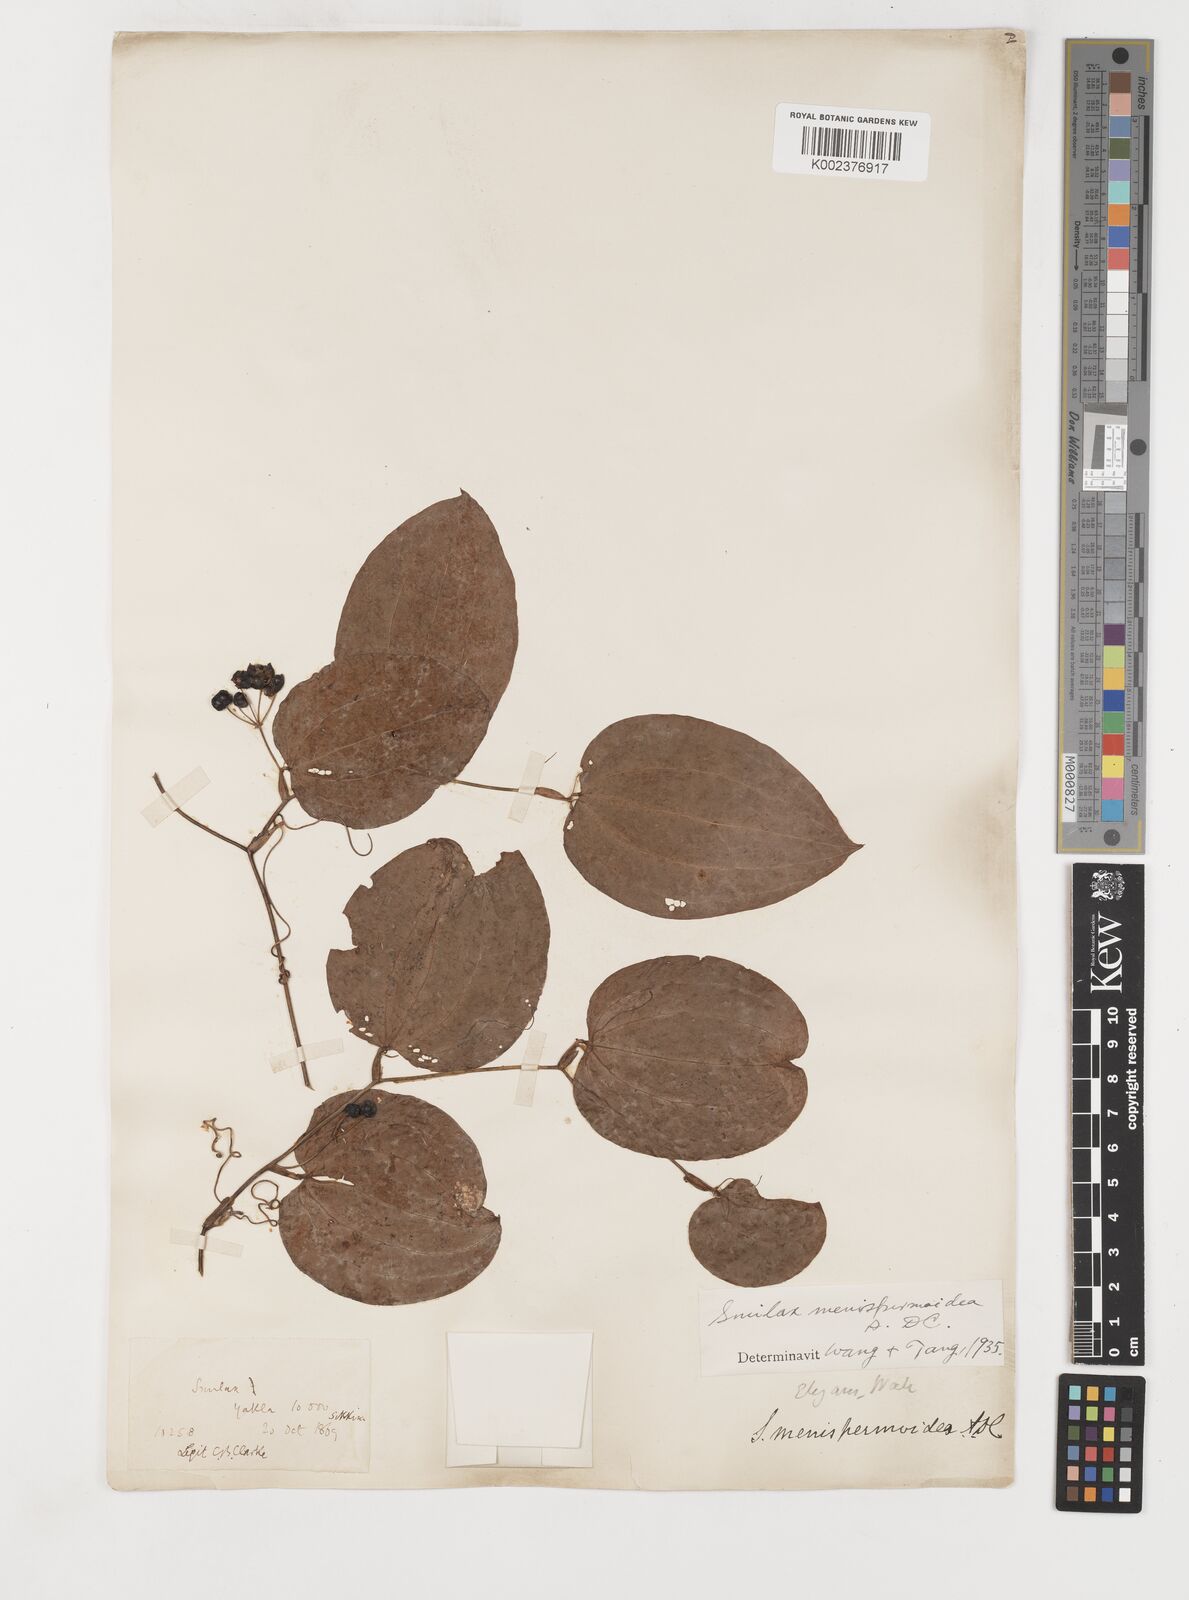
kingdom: Plantae
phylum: Tracheophyta
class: Liliopsida
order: Liliales
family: Smilacaceae
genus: Smilax
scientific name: Smilax menispermoidea
